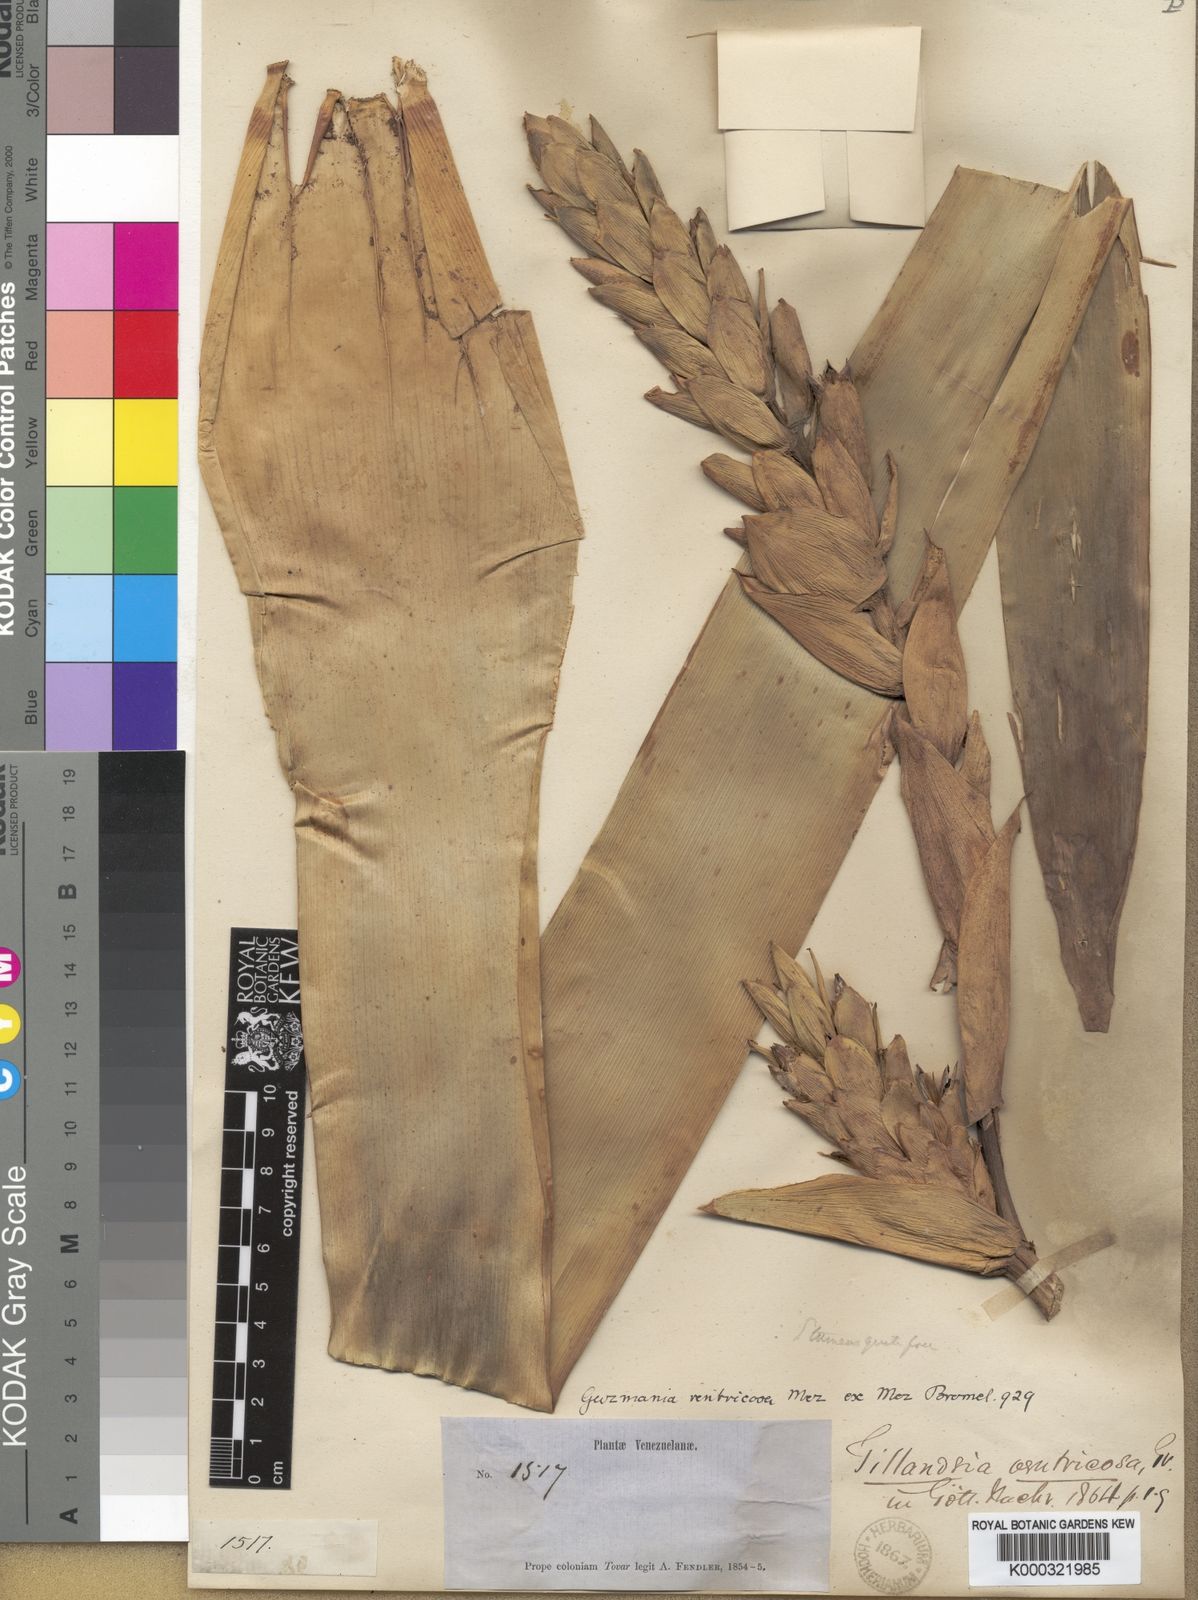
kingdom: Plantae
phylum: Tracheophyta
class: Liliopsida
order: Poales
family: Bromeliaceae
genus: Guzmania
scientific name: Guzmania ventricosa
